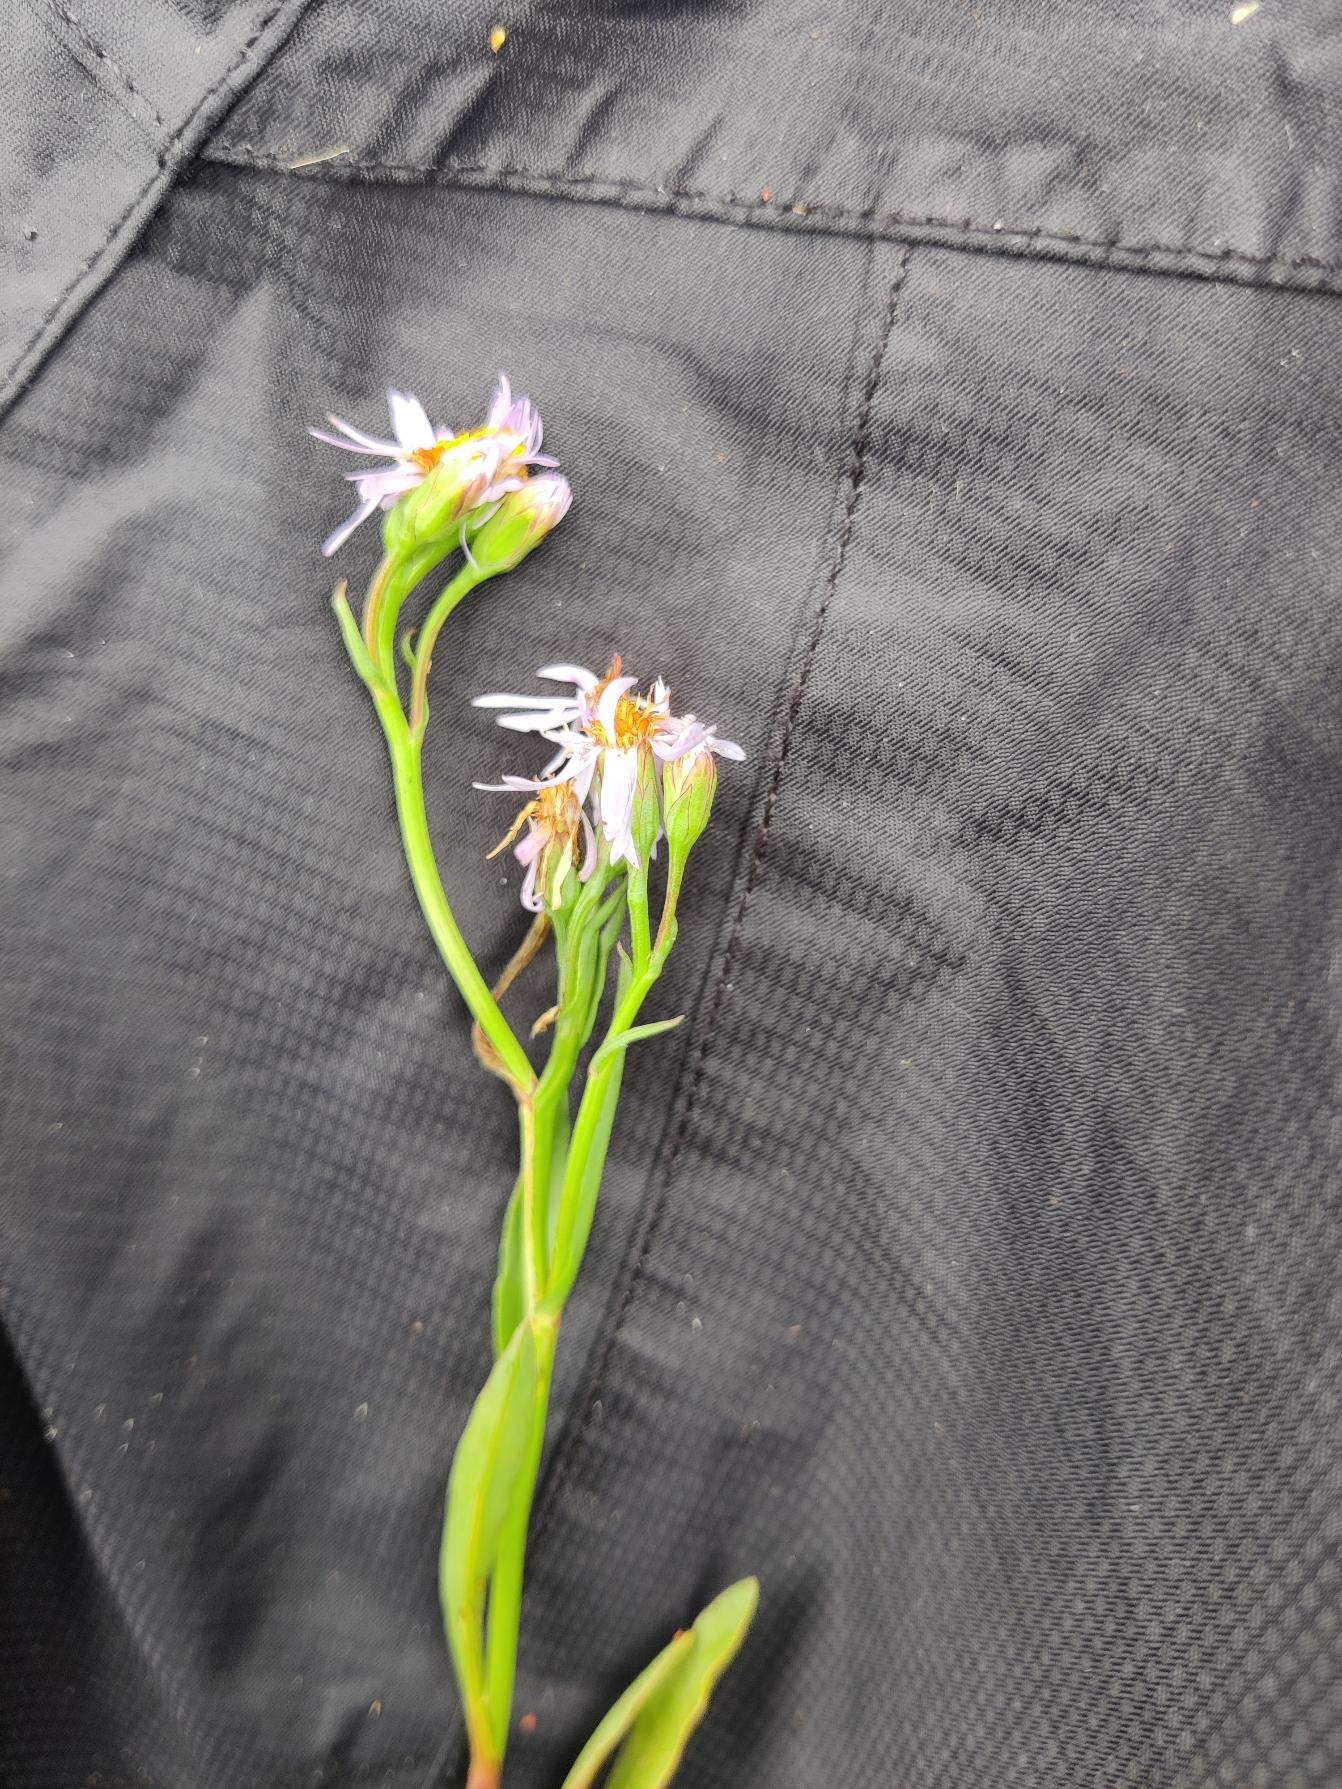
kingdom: Plantae
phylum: Tracheophyta
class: Magnoliopsida
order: Asterales
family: Asteraceae
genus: Tripolium
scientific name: Tripolium pannonicum
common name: Strandasters
